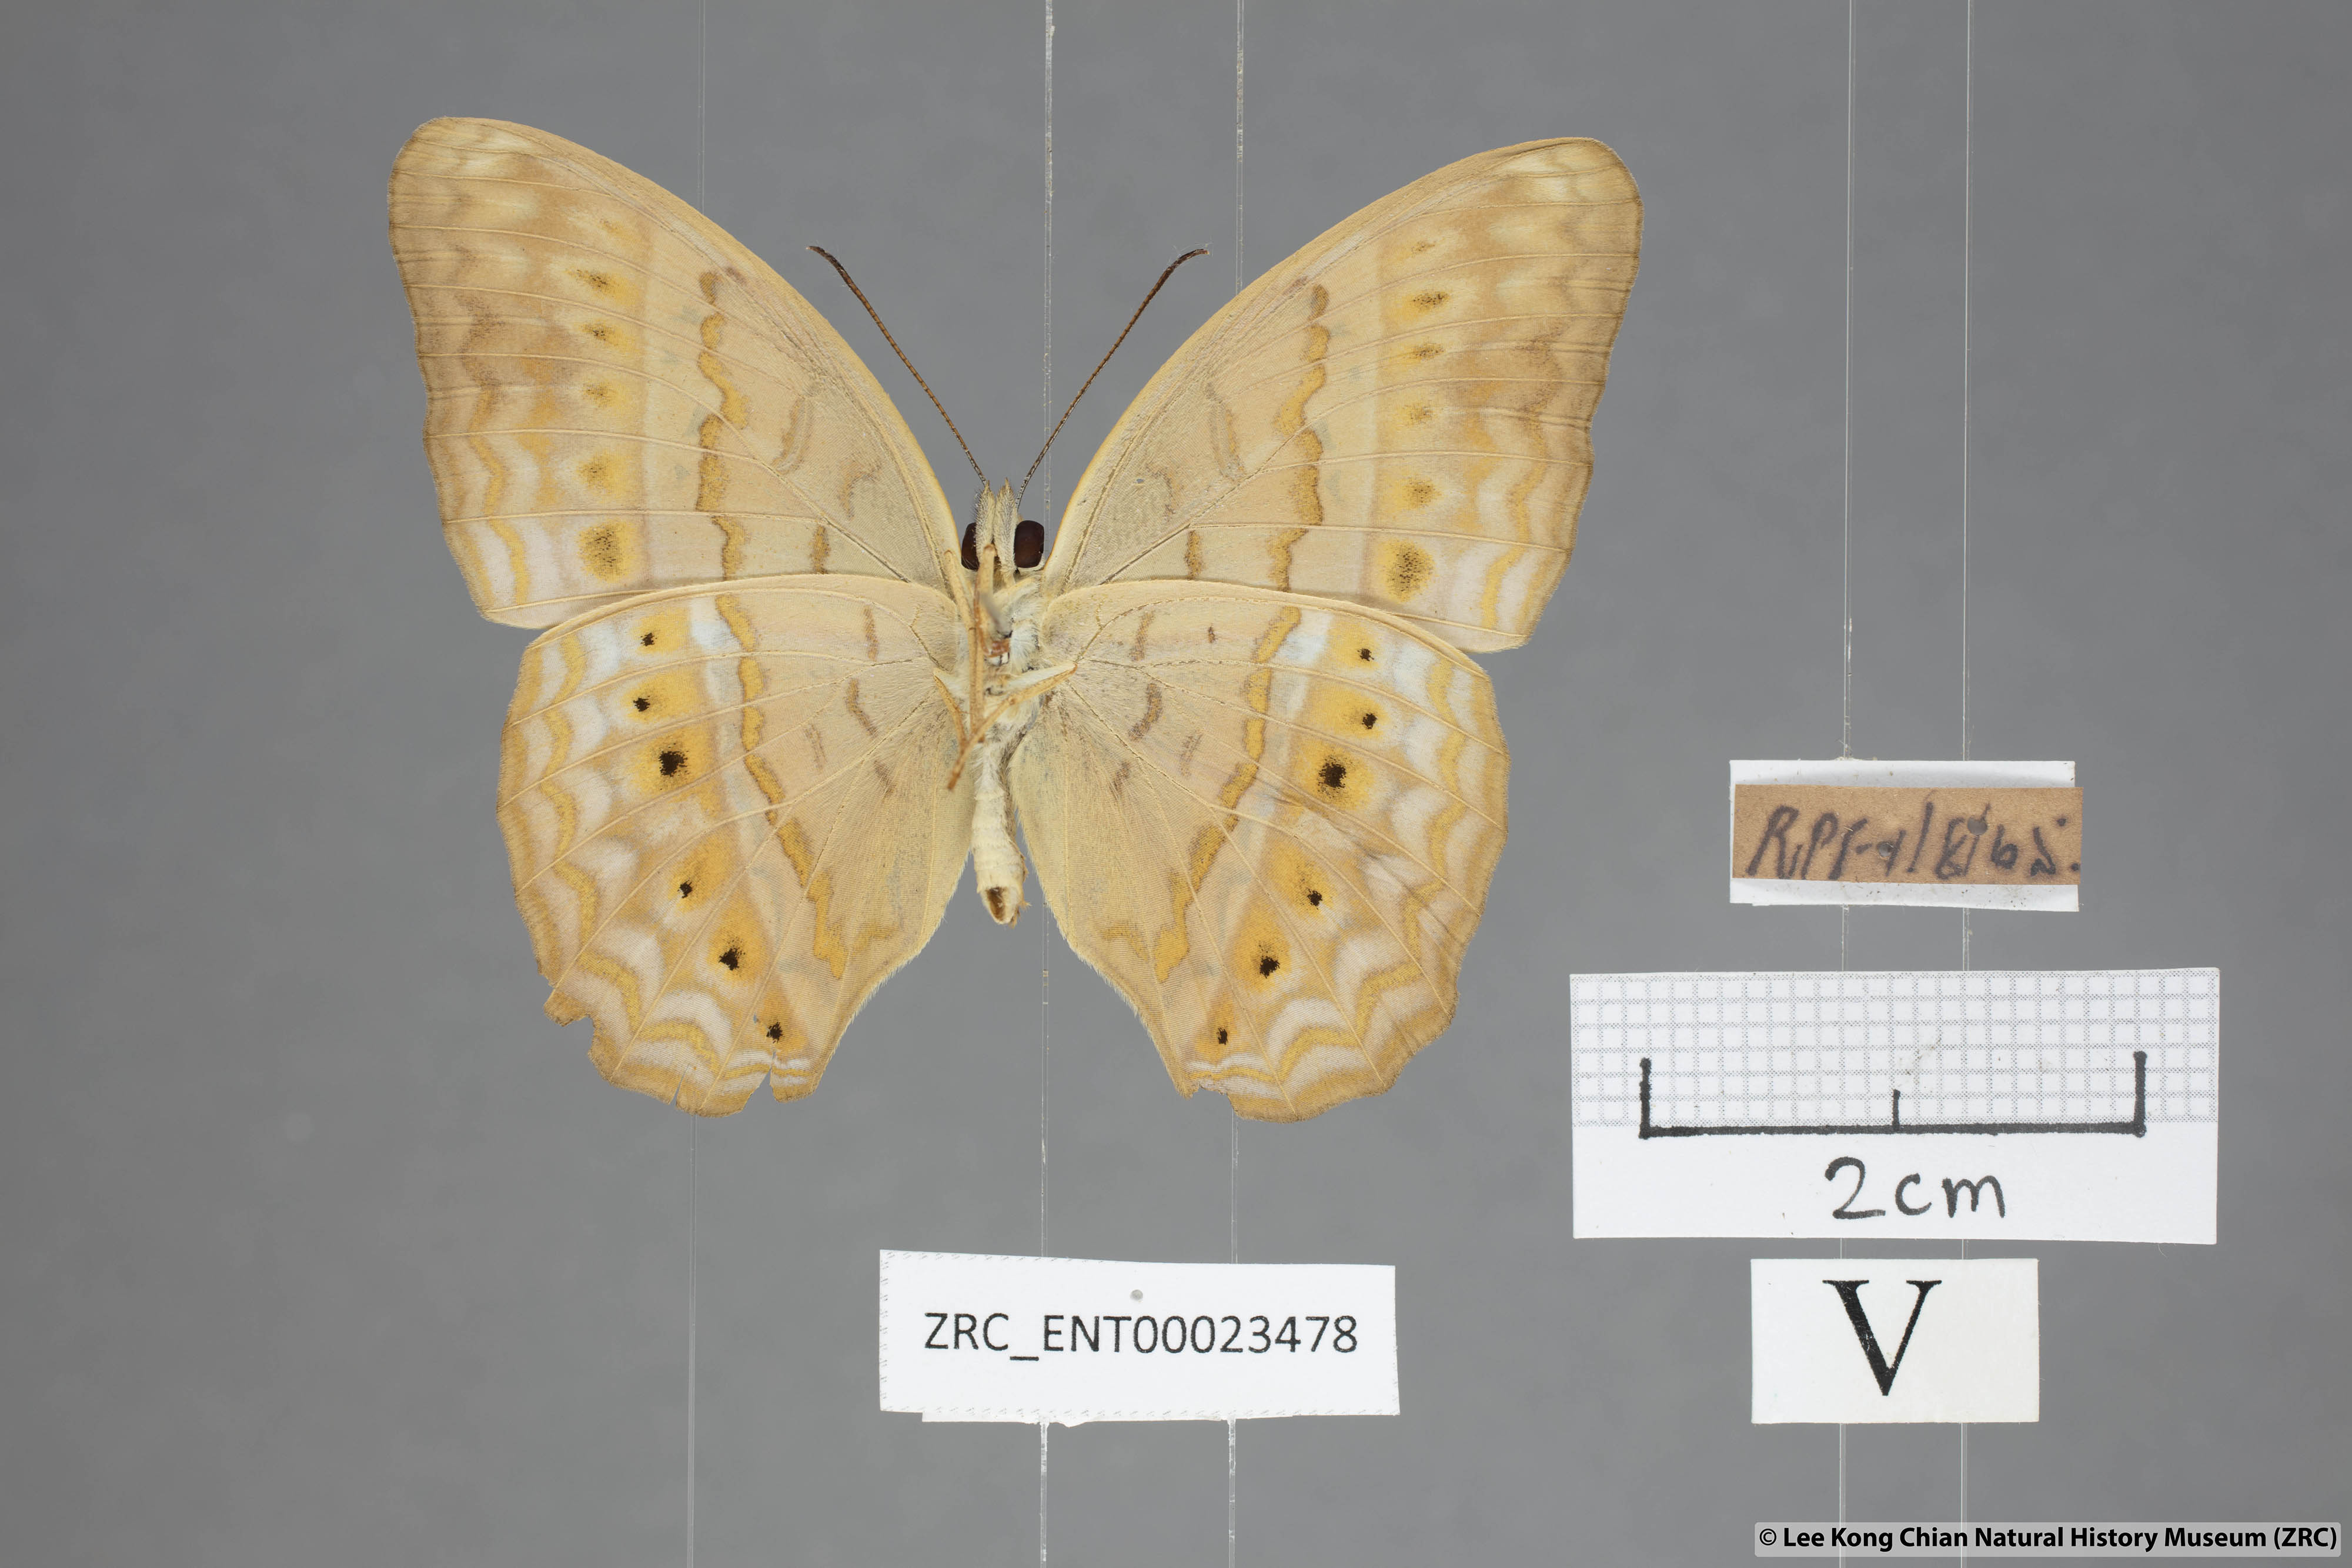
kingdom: Animalia
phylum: Arthropoda
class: Insecta
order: Lepidoptera
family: Nymphalidae
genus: Cirrochroa
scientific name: Cirrochroa tyche
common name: Common yeoman
